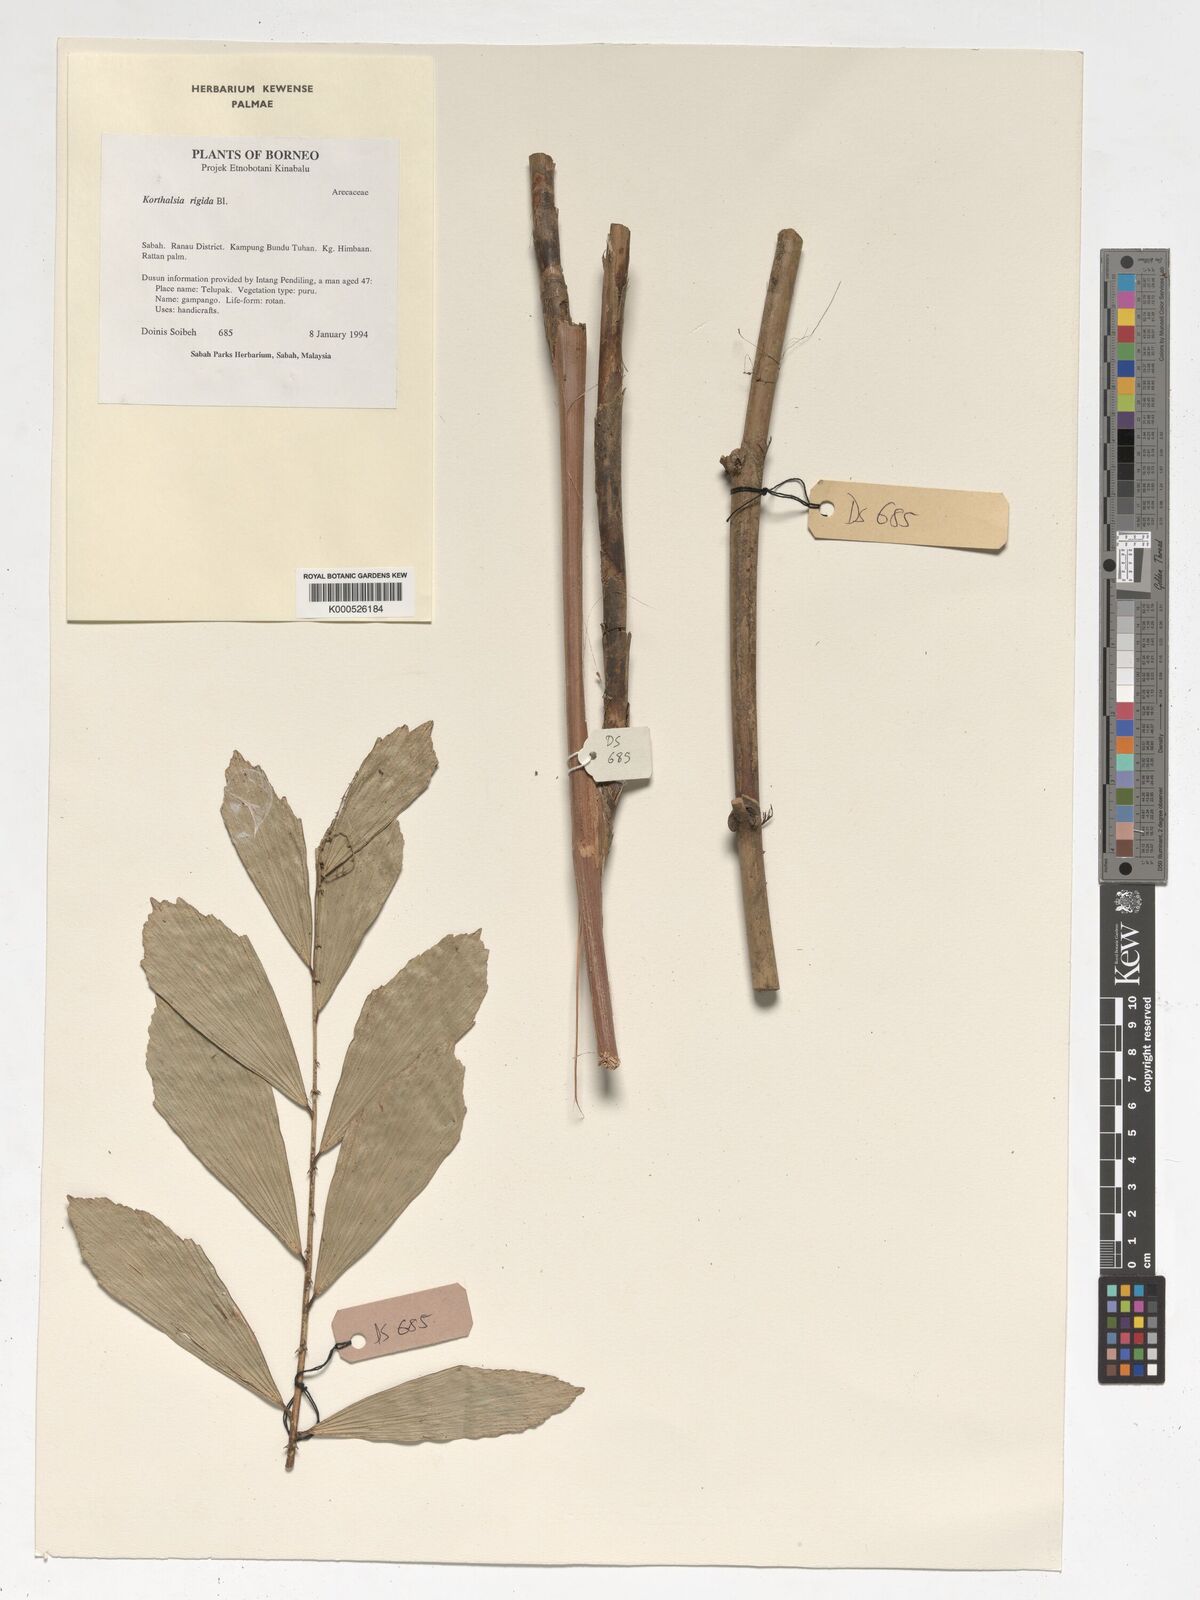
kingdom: Plantae
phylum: Tracheophyta
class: Liliopsida
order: Arecales
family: Arecaceae
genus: Korthalsia
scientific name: Korthalsia rigida
